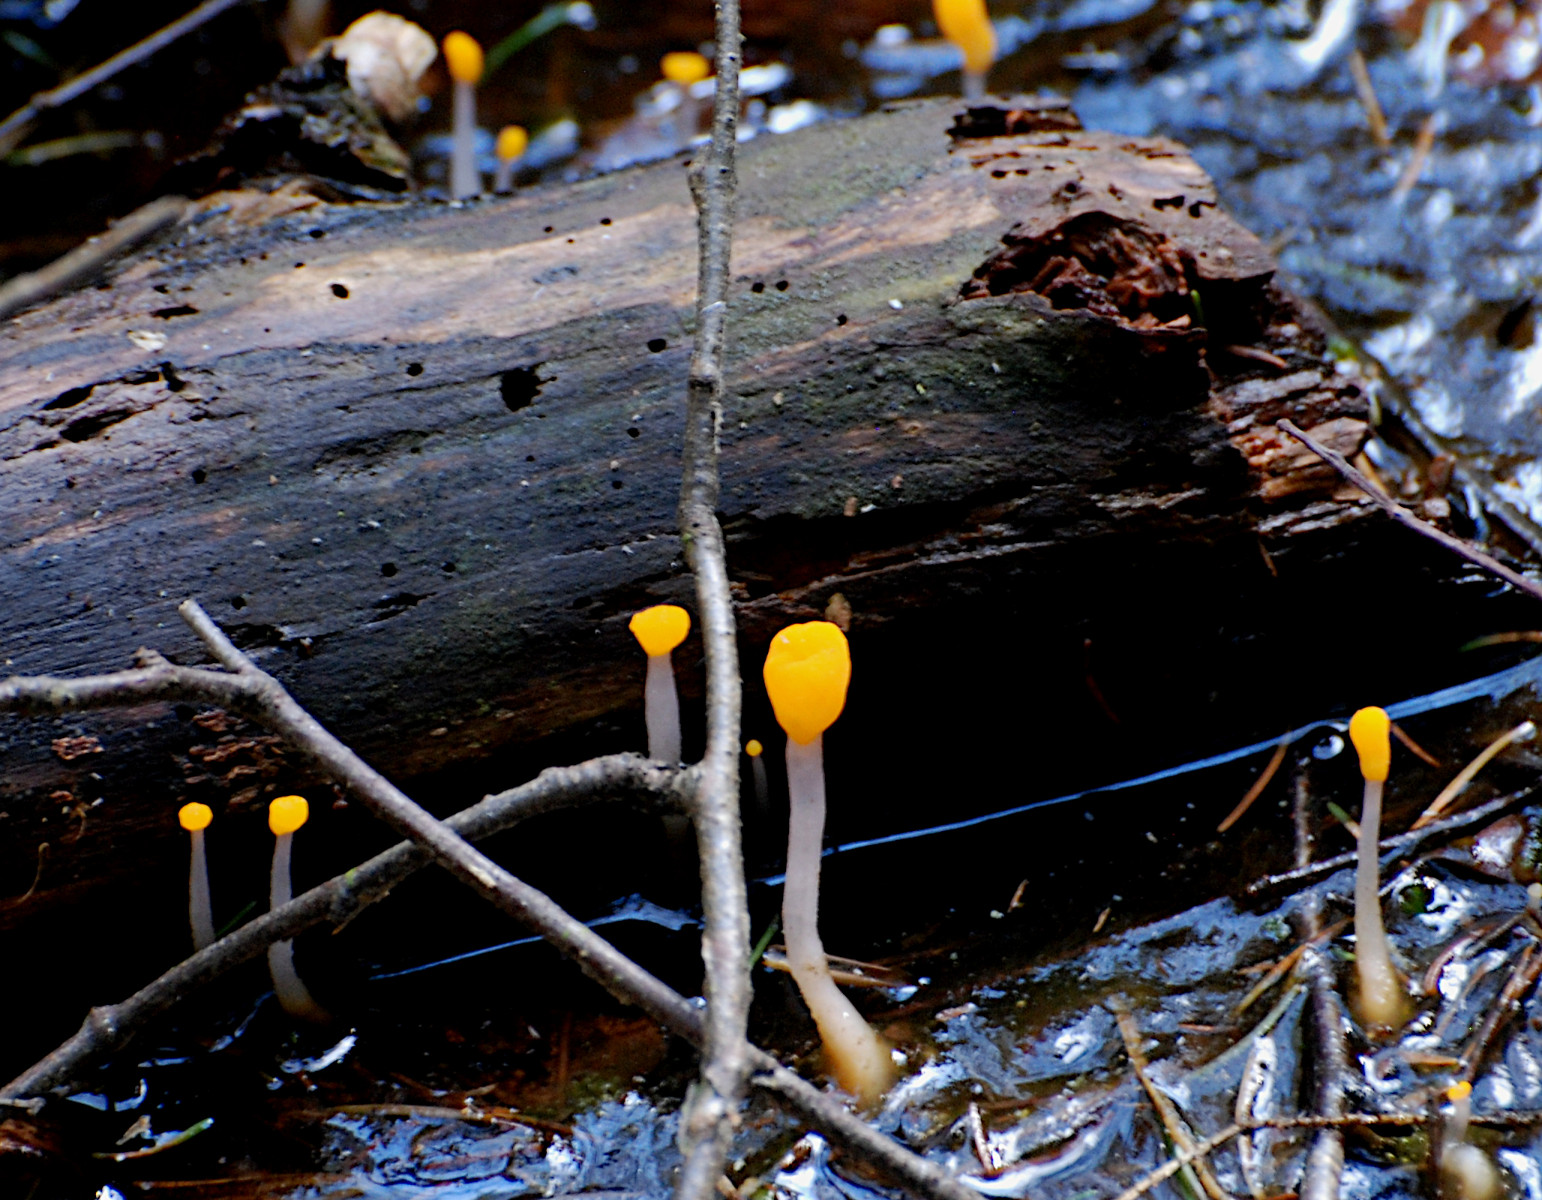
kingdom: Fungi
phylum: Ascomycota
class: Leotiomycetes
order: Helotiales
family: Cenangiaceae
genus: Mitrula
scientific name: Mitrula paludosa
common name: gul nøkketunge
